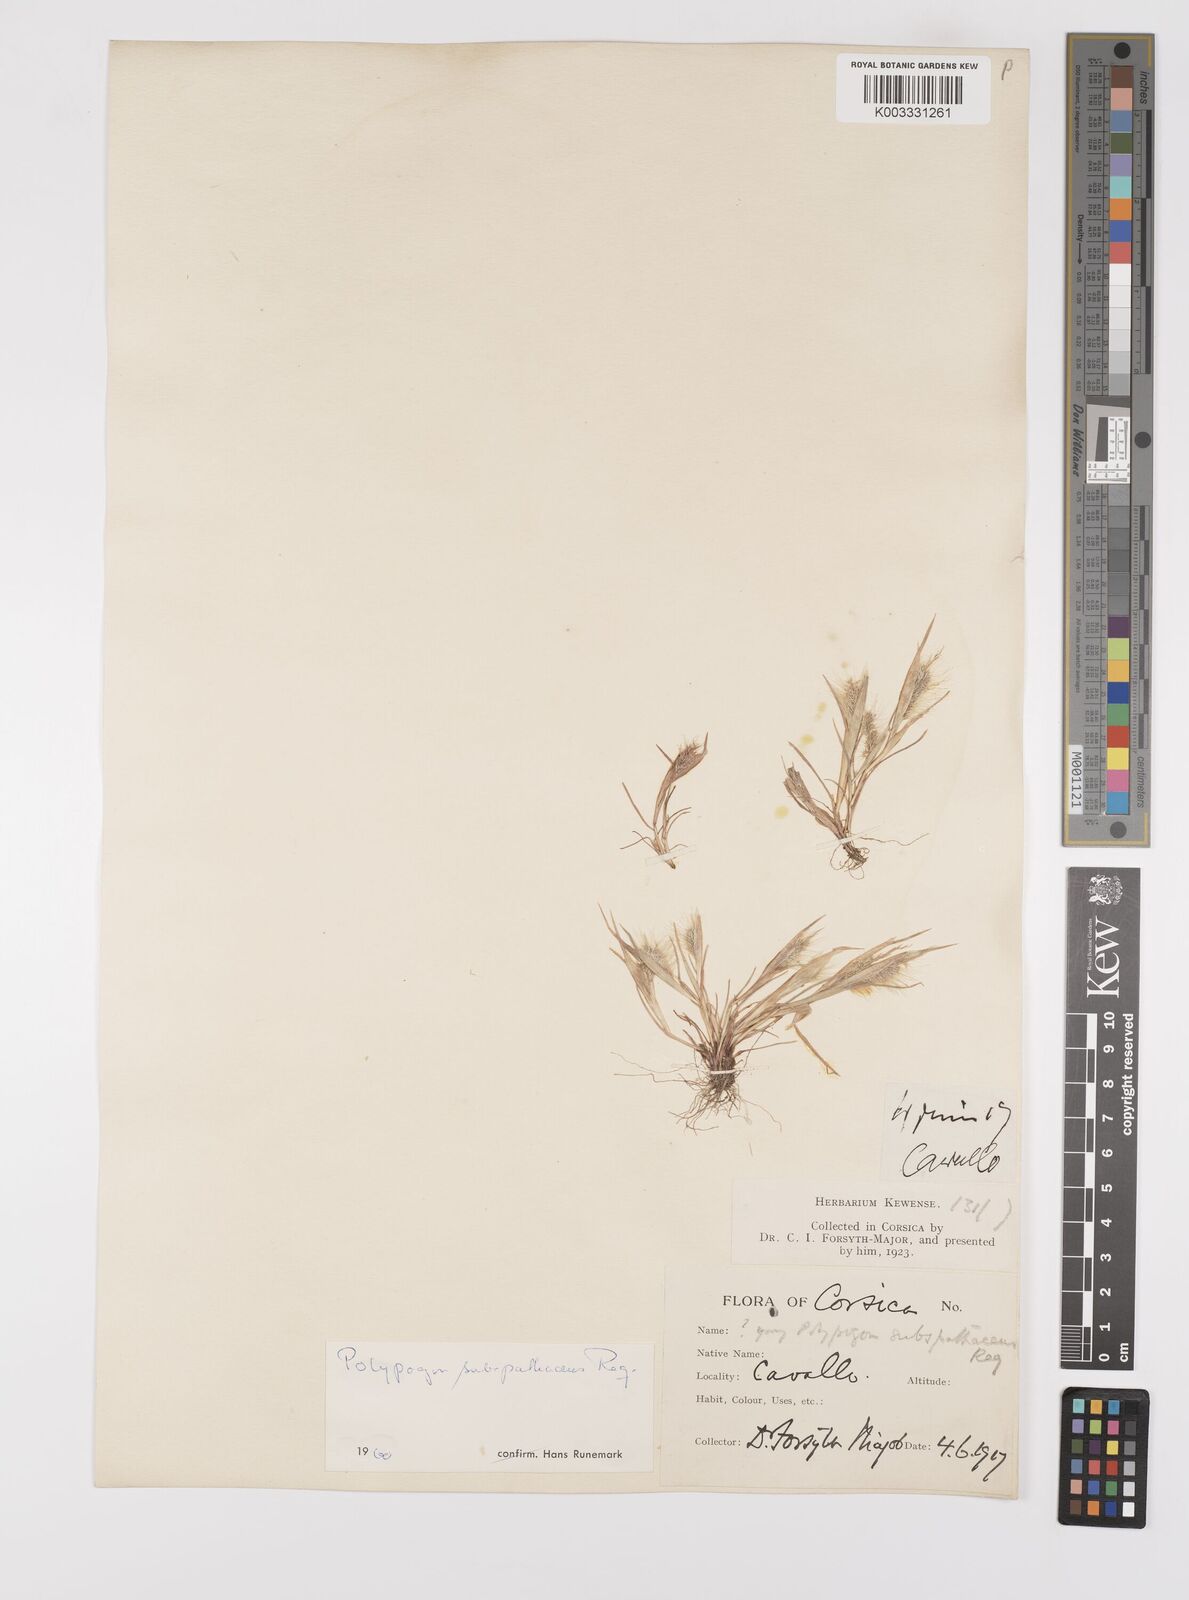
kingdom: Plantae
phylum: Tracheophyta
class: Liliopsida
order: Poales
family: Poaceae
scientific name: Poaceae
